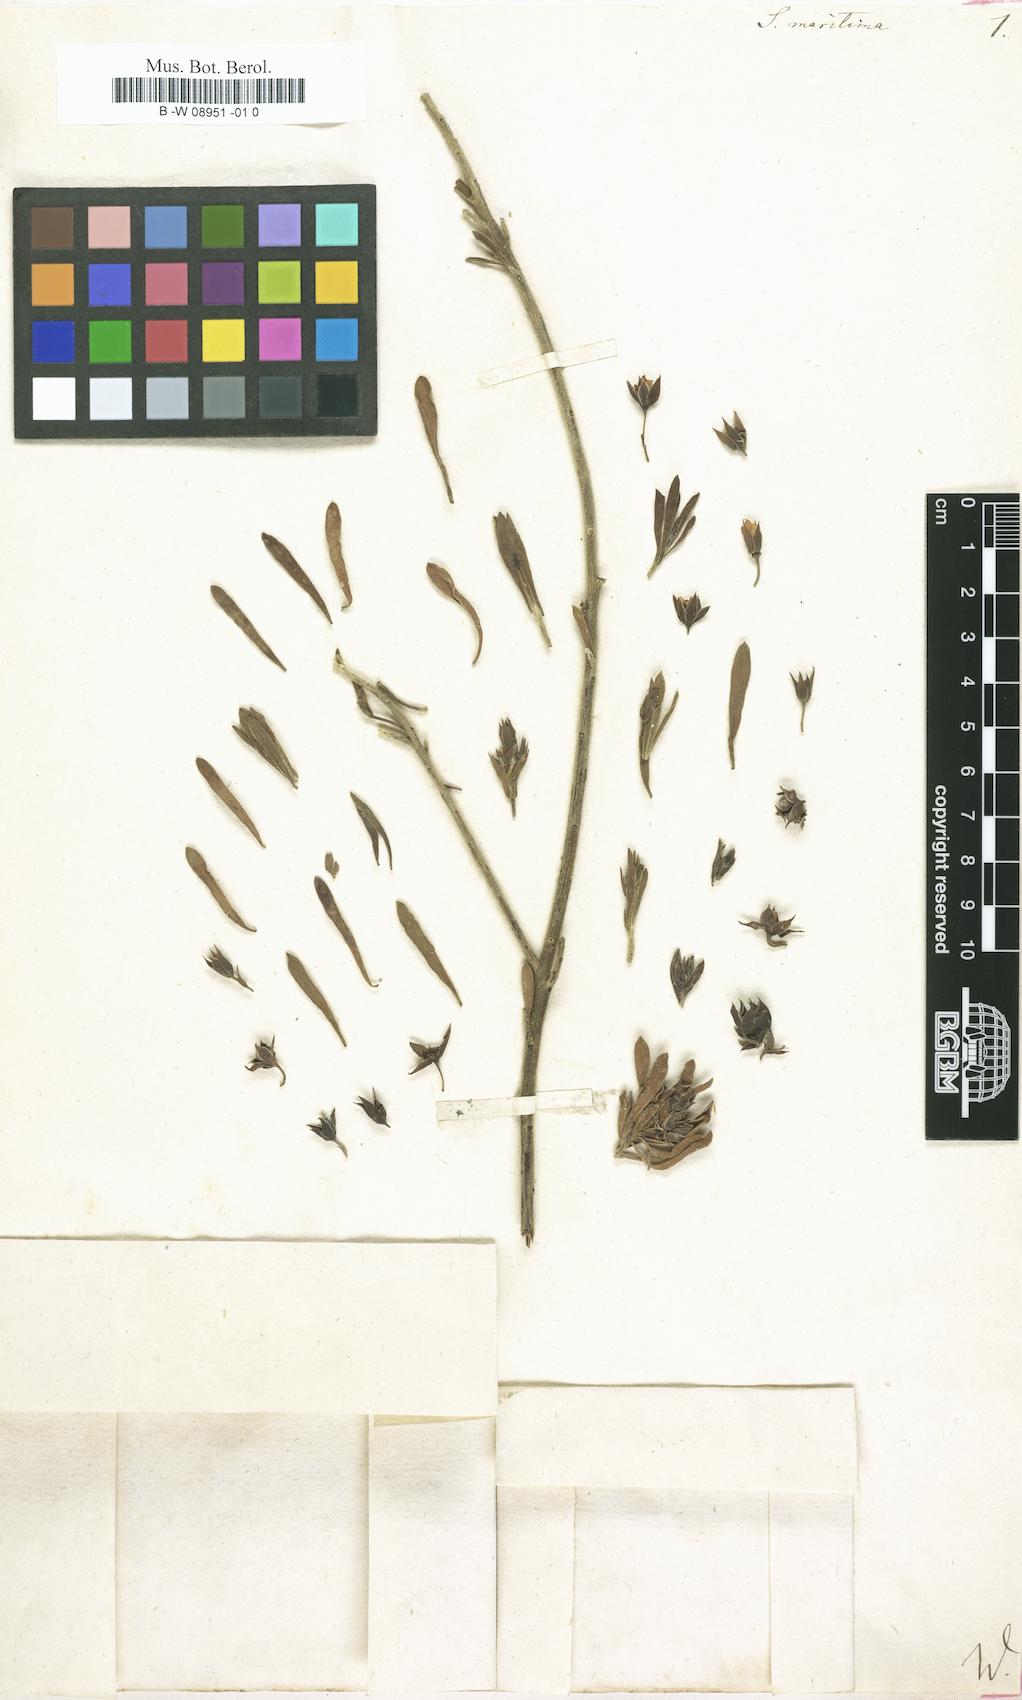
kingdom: Plantae
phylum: Tracheophyta
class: Magnoliopsida
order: Fabales
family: Surianaceae
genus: Suriana
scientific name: Suriana maritima
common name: Bay-cedar
